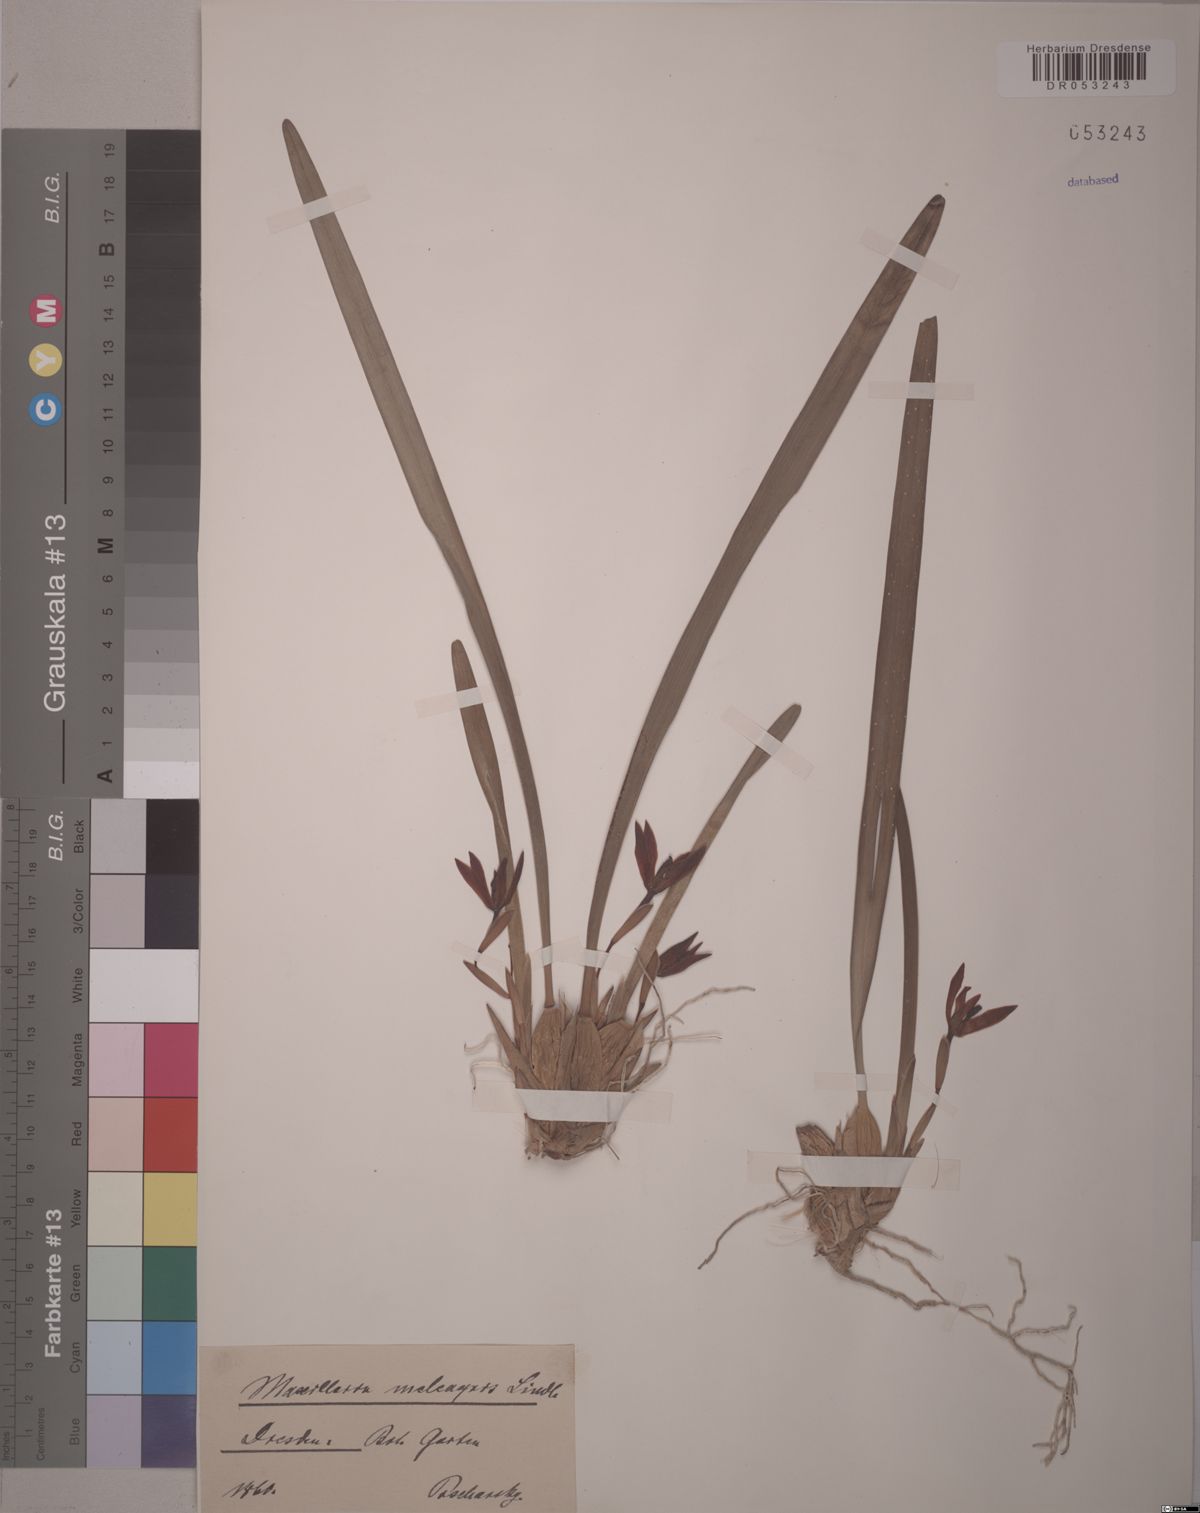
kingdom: Plantae
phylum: Tracheophyta
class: Liliopsida
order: Asparagales
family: Orchidaceae
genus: Maxillaria
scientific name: Maxillaria meleagris
